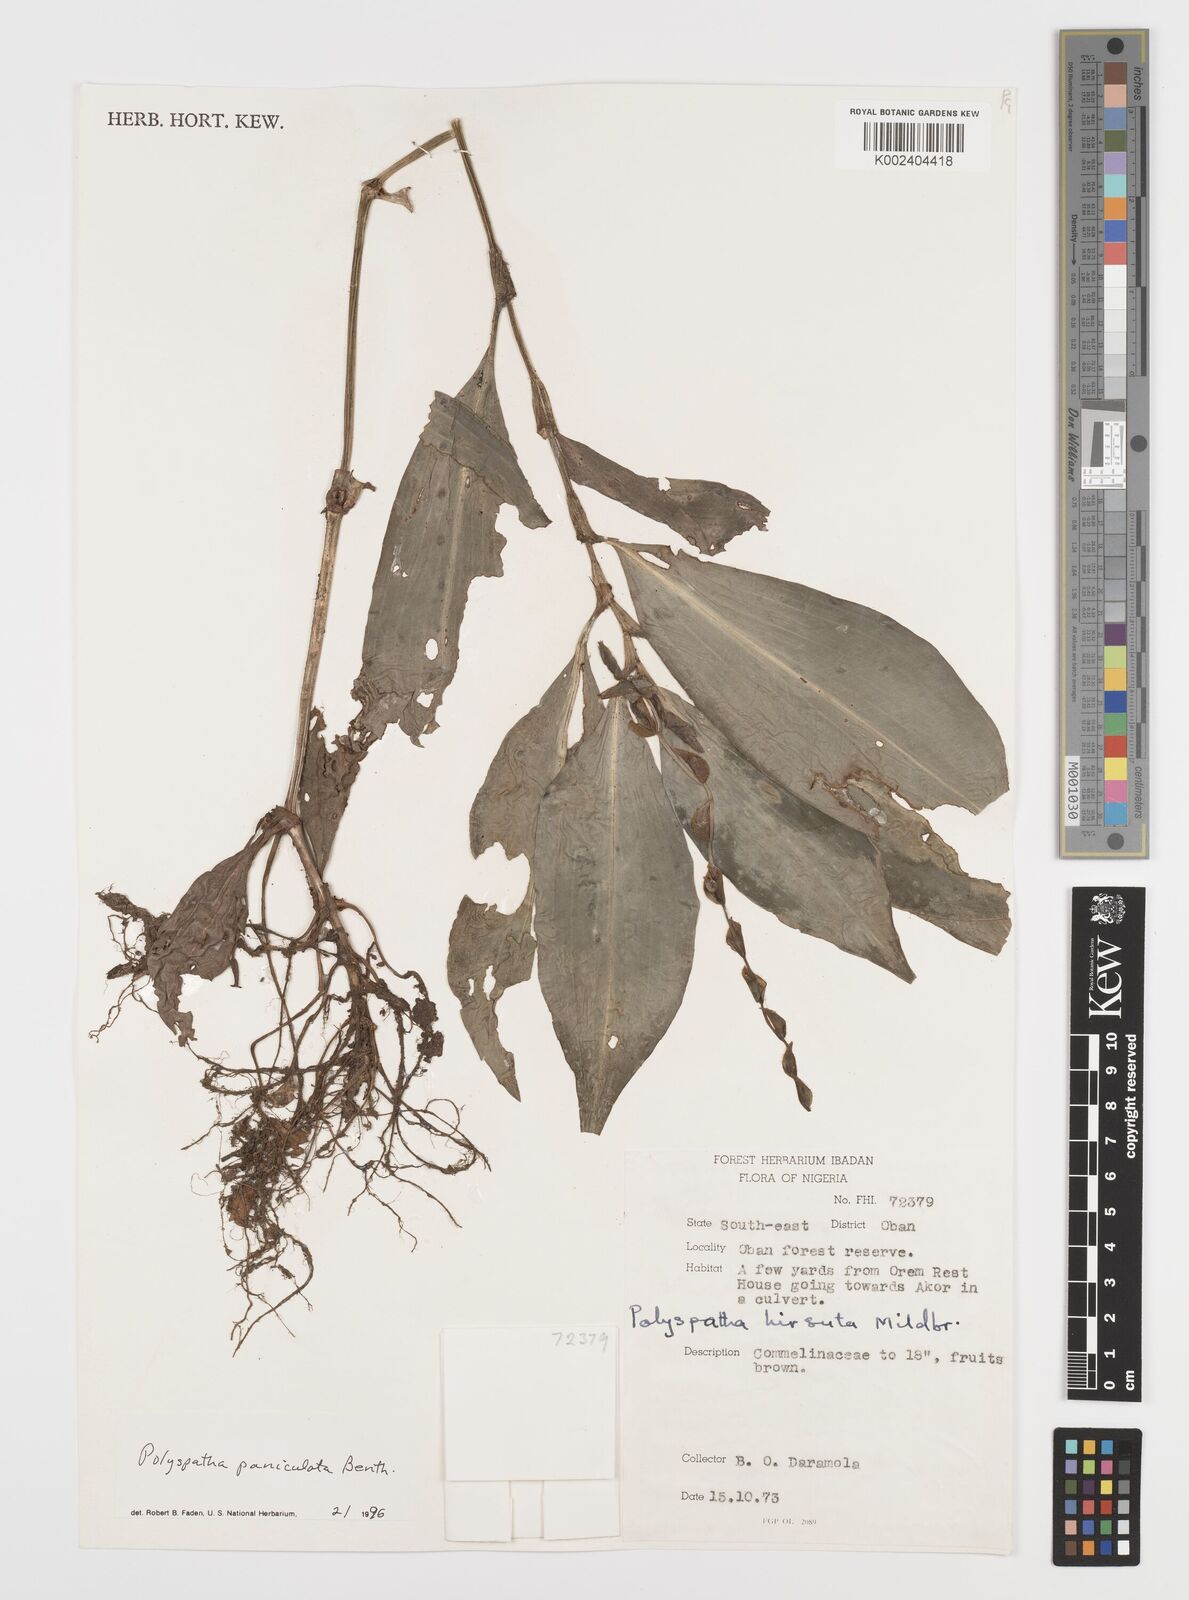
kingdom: Plantae
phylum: Tracheophyta
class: Liliopsida
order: Commelinales
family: Commelinaceae
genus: Polyspatha
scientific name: Polyspatha paniculata
